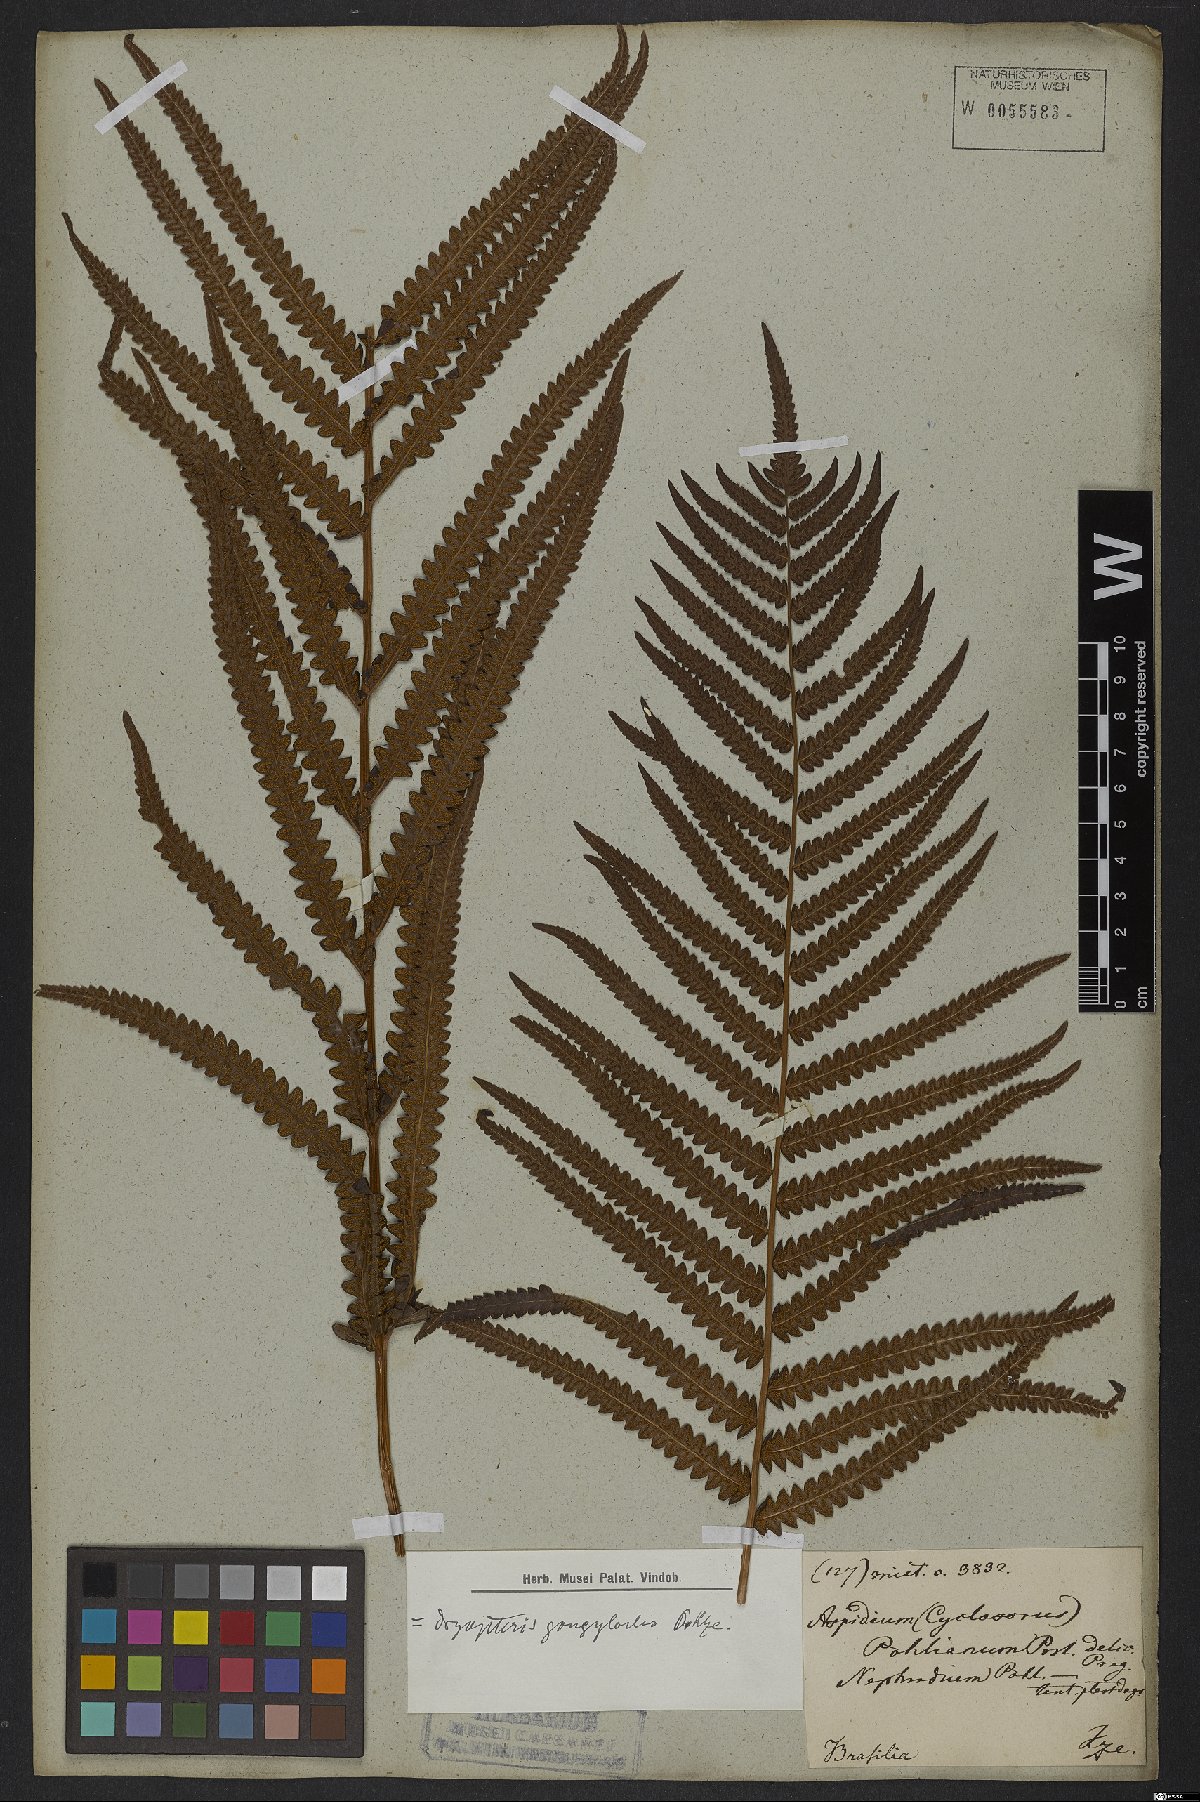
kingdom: Plantae
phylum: Tracheophyta
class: Polypodiopsida
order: Polypodiales
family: Thelypteridaceae
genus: Cyclosorus
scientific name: Cyclosorus interruptus
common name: Neke fern
